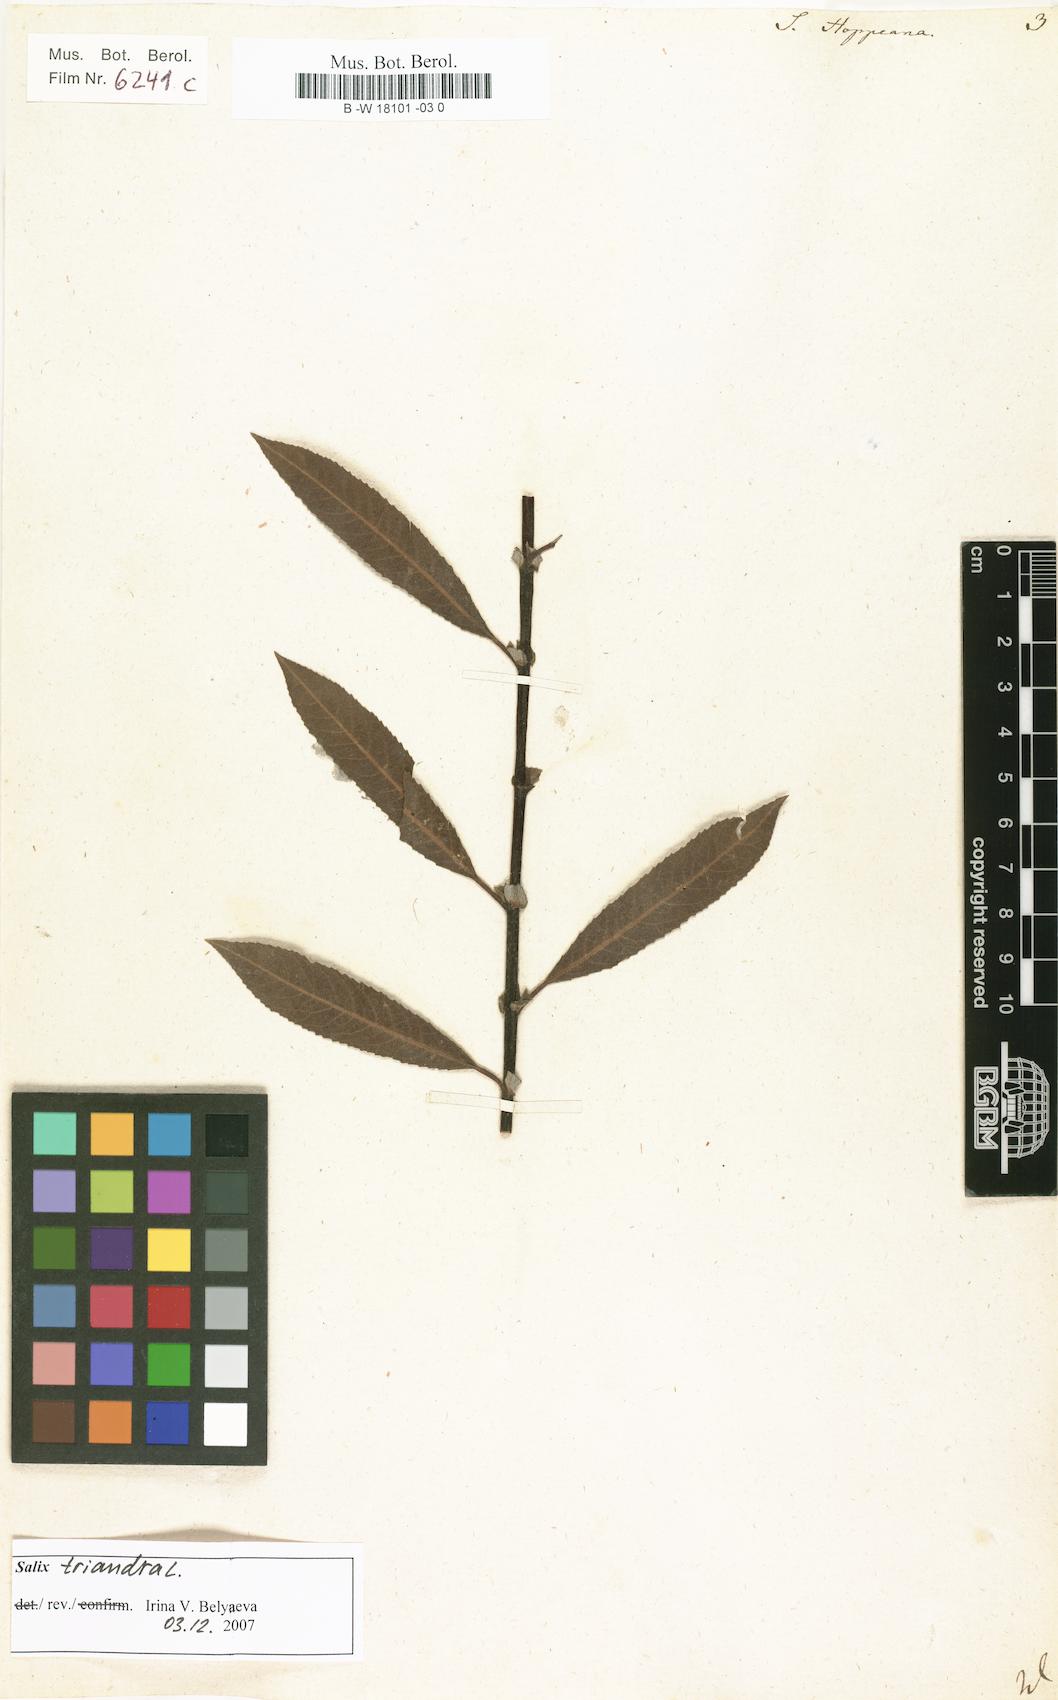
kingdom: Plantae
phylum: Tracheophyta
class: Magnoliopsida
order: Malpighiales
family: Salicaceae
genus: Salix
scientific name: Salix triandra
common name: Almond willow
